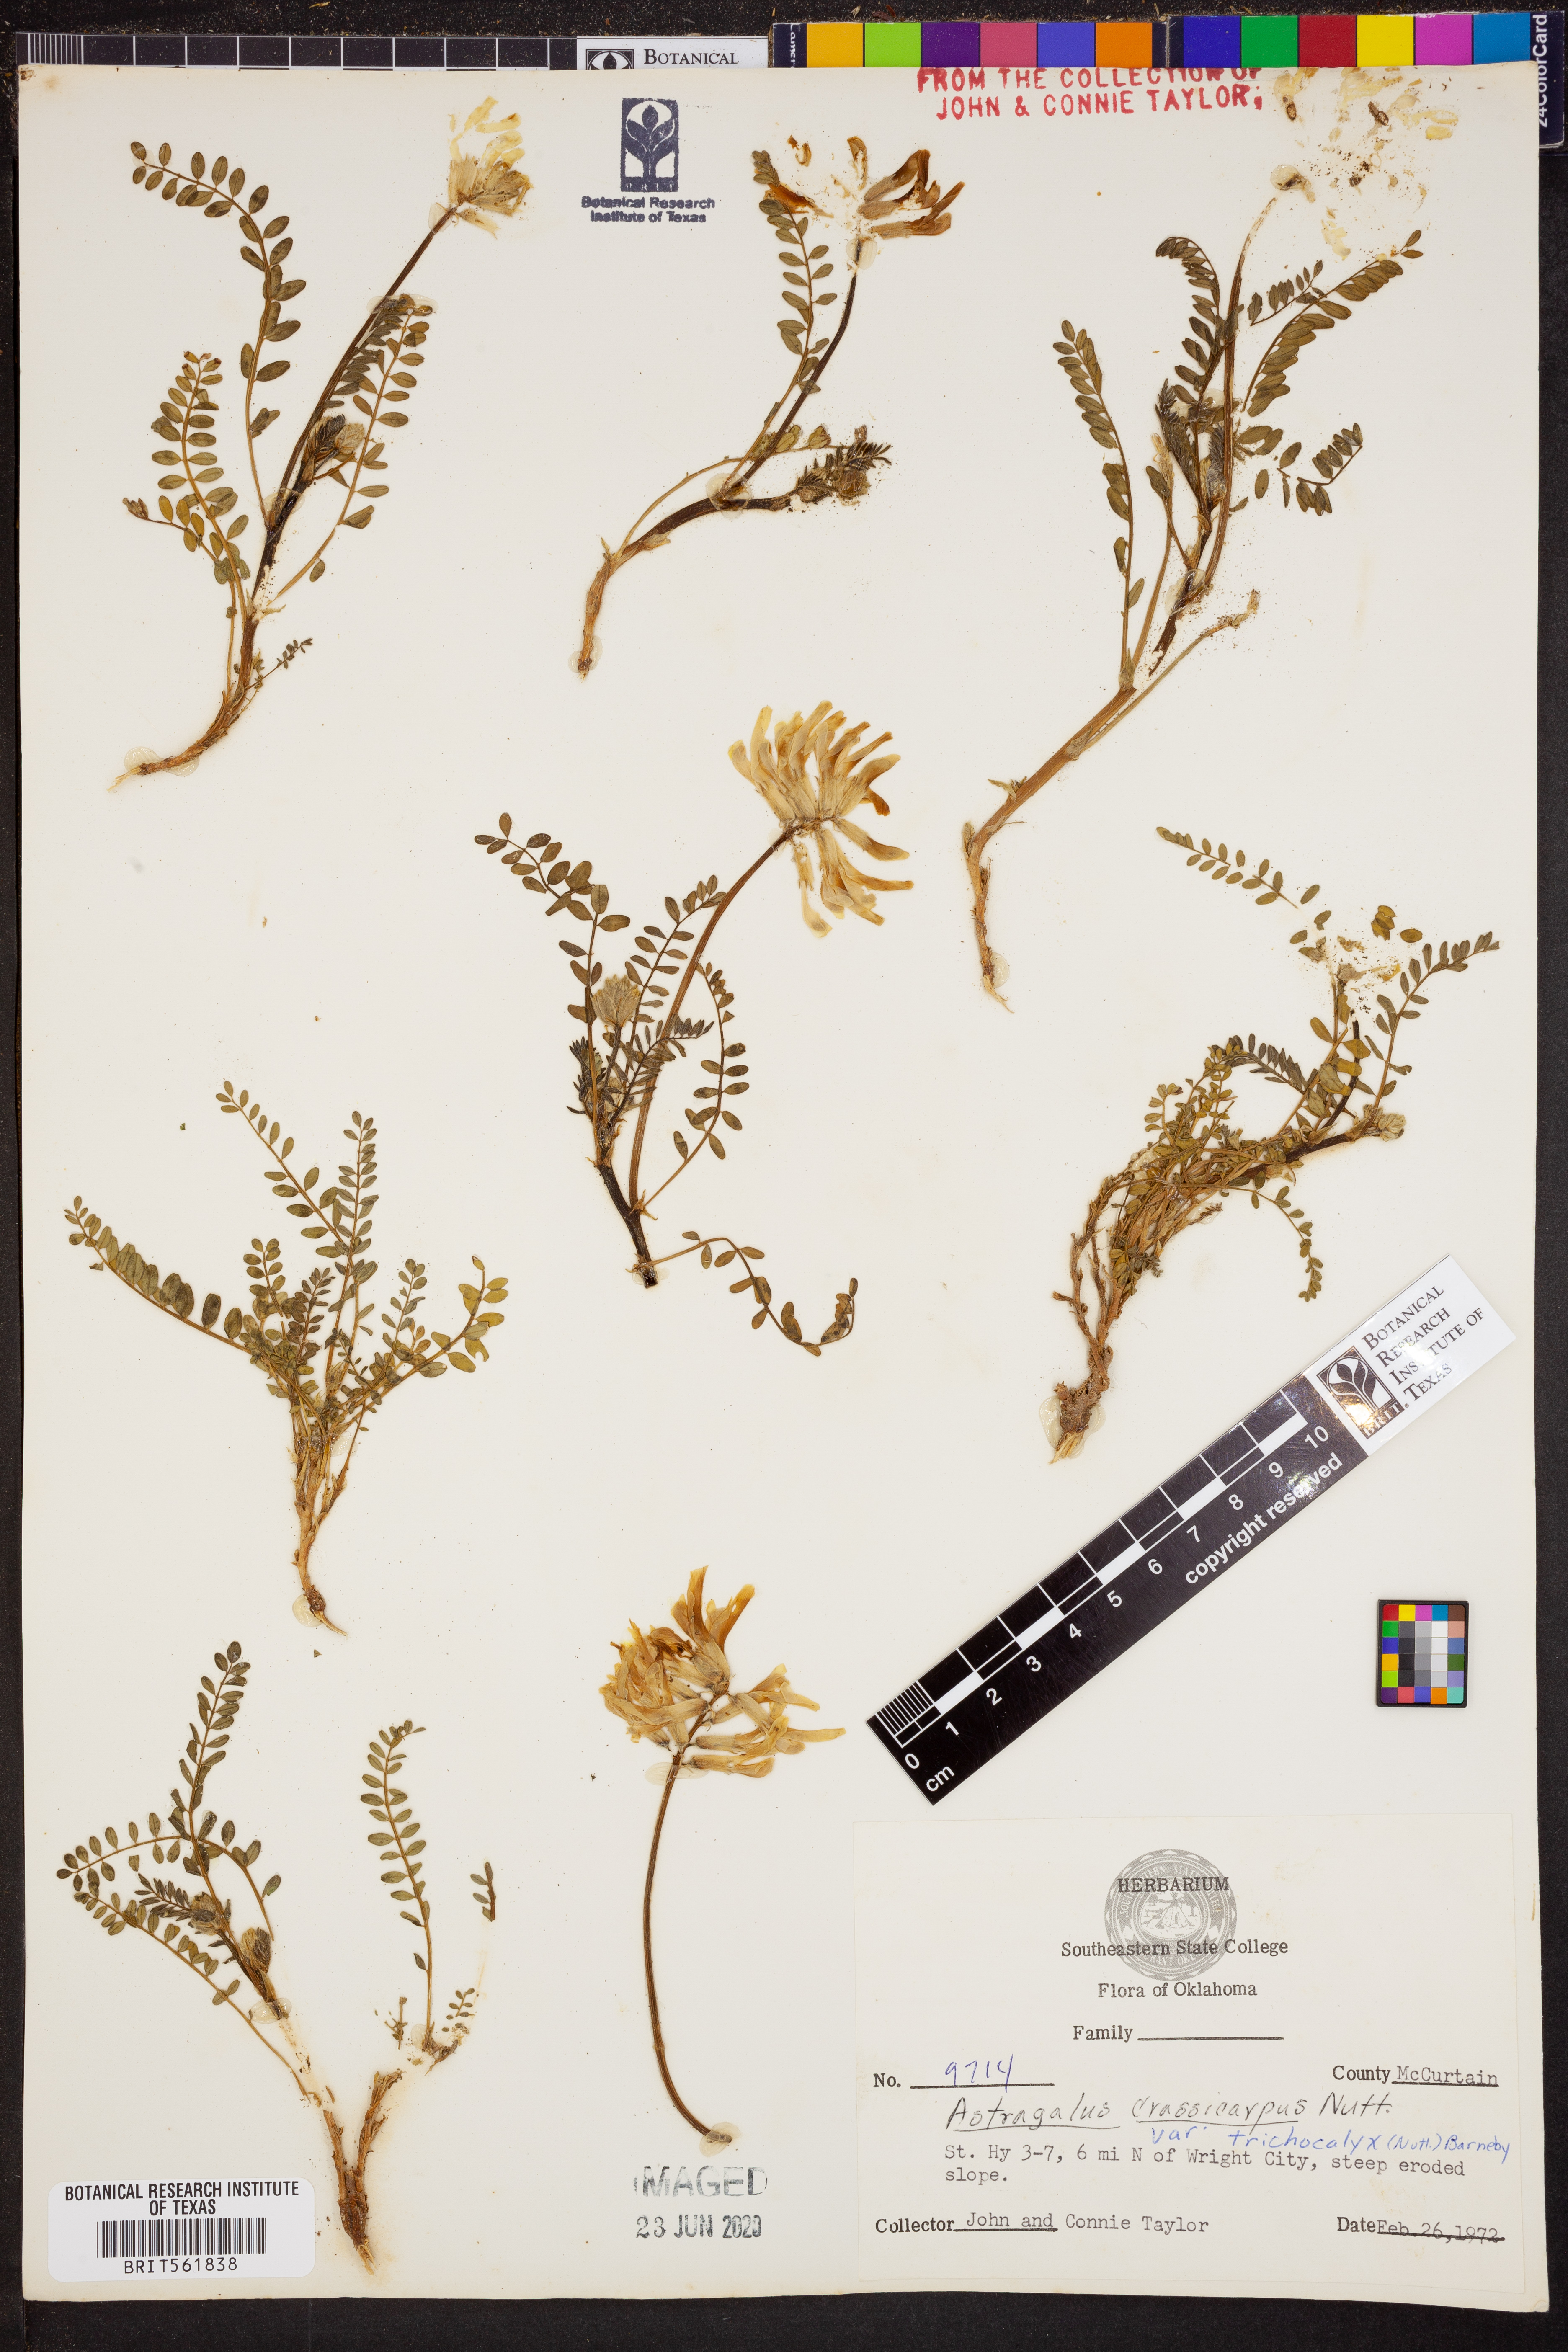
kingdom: Plantae
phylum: Tracheophyta
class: Magnoliopsida
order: Fabales
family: Fabaceae
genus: Astragalus
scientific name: Astragalus crassicarpus
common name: Ground-plum milk-vetch
